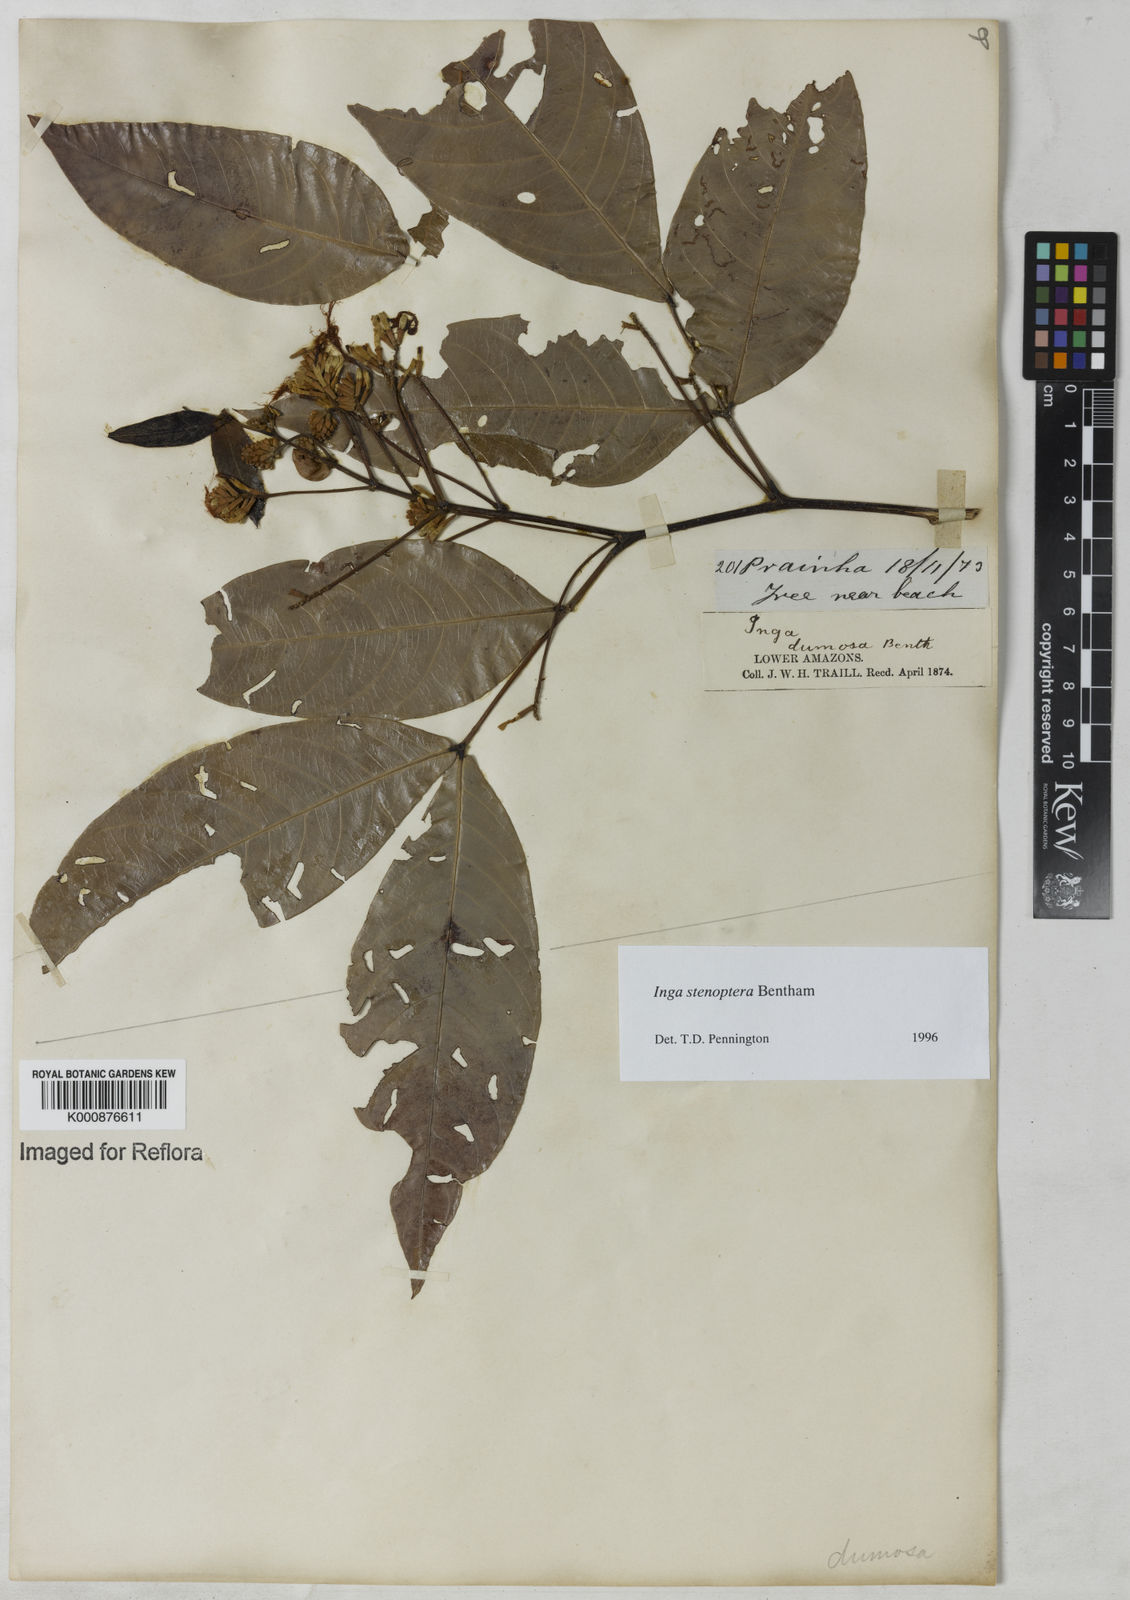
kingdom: Plantae
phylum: Tracheophyta
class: Magnoliopsida
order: Fabales
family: Fabaceae
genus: Inga
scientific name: Inga stenoptera
